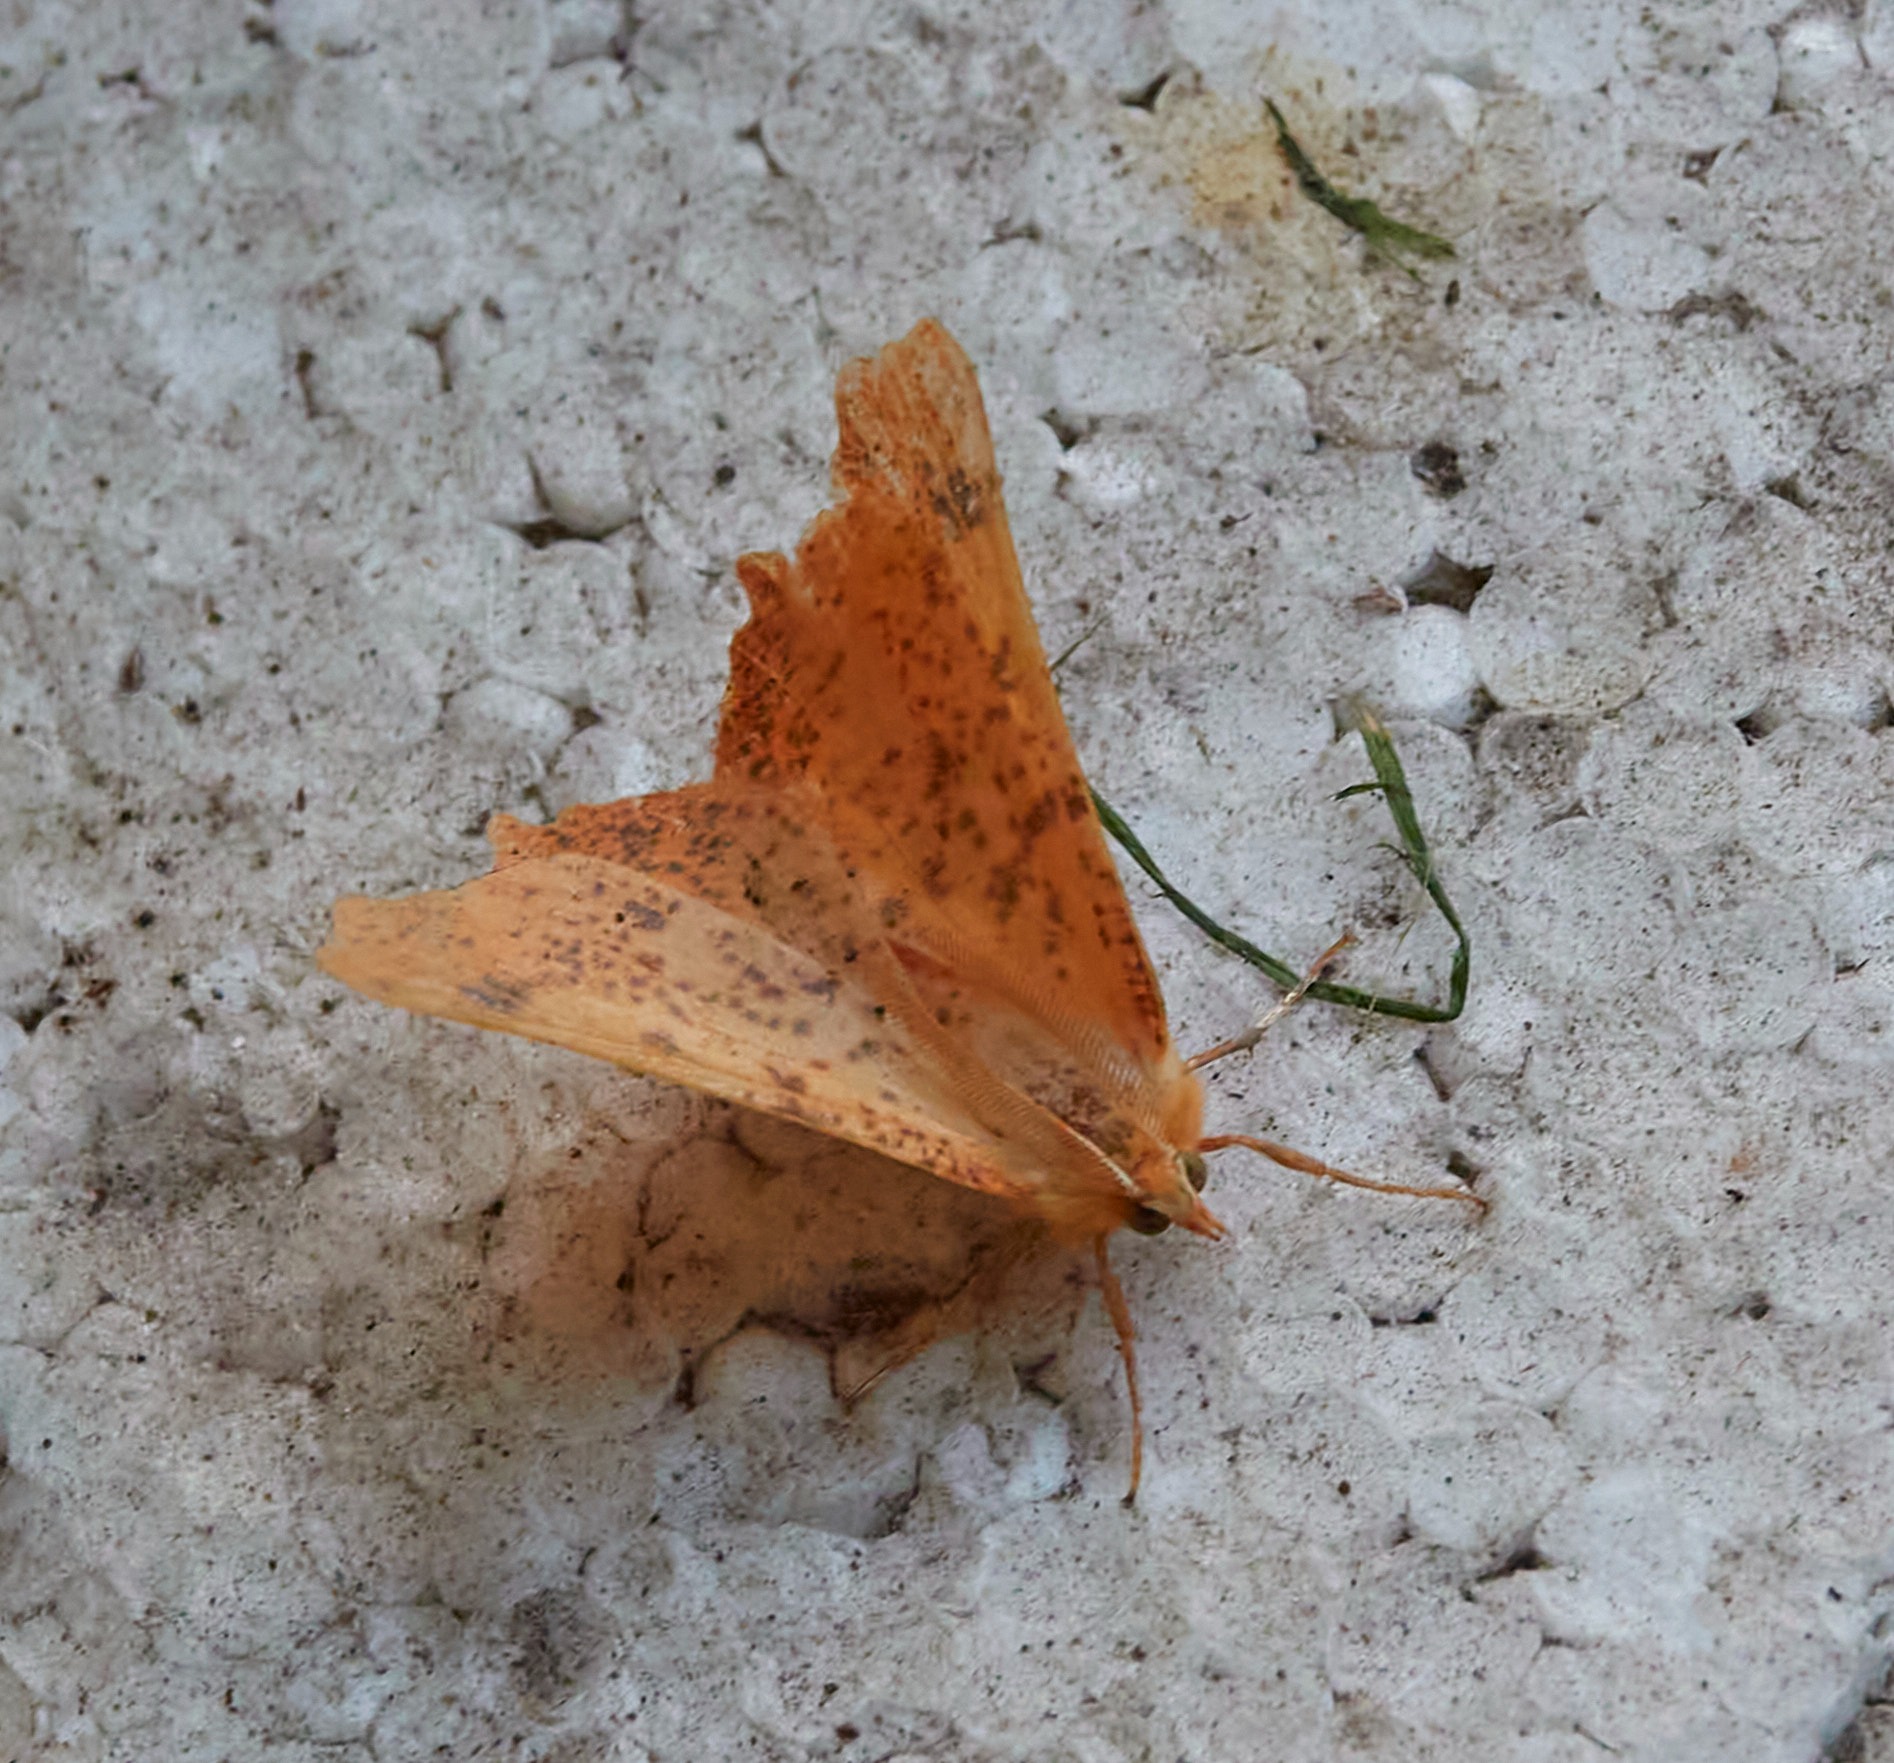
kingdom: Animalia
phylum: Arthropoda
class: Insecta
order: Lepidoptera
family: Geometridae
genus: Ennomos
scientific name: Ennomos autumnaria
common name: Stor tandmåler
